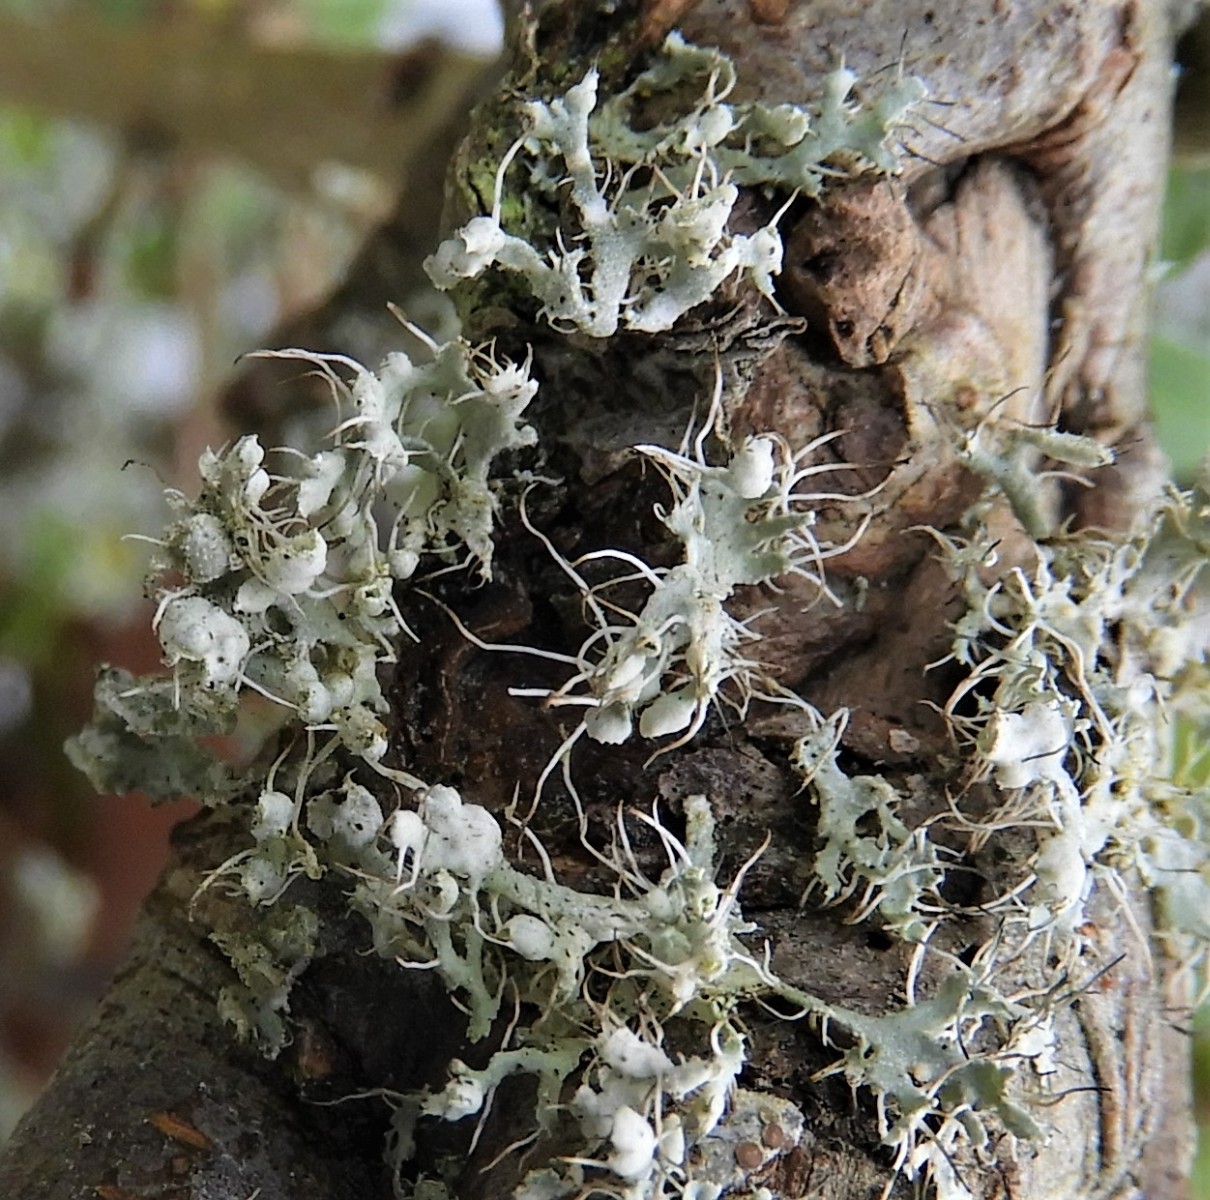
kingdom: Fungi
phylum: Ascomycota
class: Lecanoromycetes
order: Caliciales
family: Physciaceae
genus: Physcia
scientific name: Physcia adscendens
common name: hætte-rosetlav
